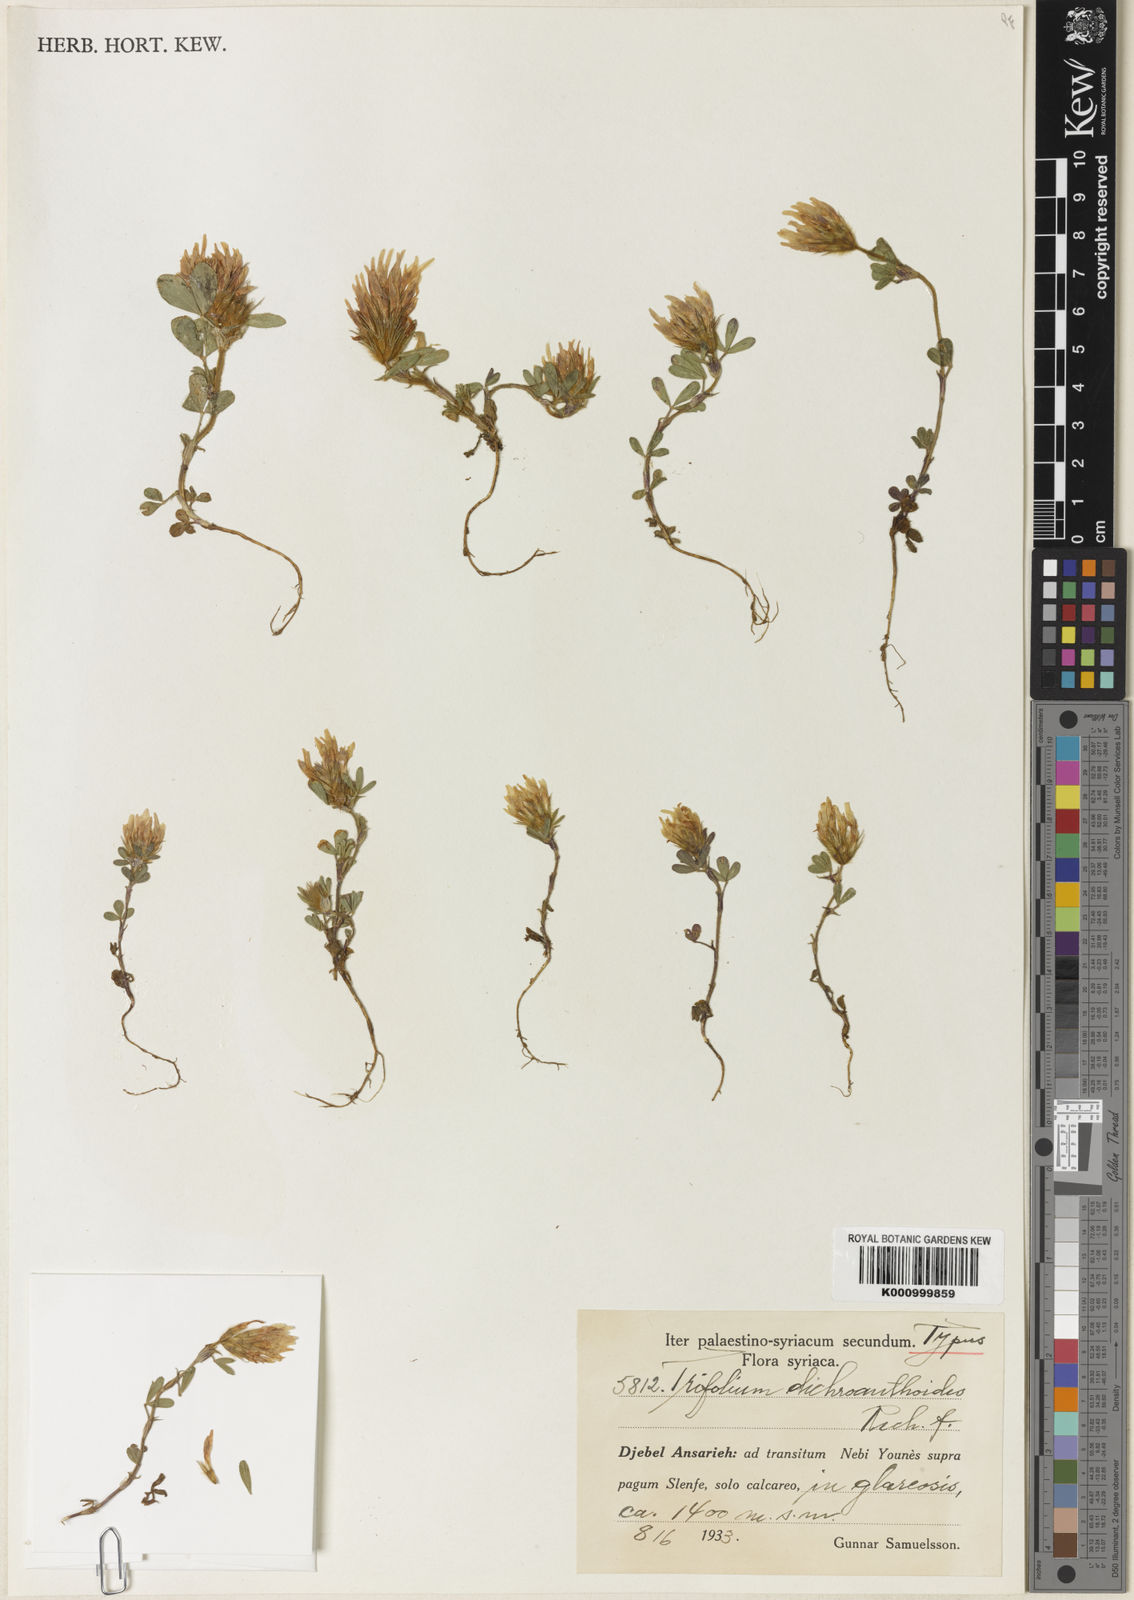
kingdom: Plantae
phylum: Tracheophyta
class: Magnoliopsida
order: Fabales
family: Fabaceae
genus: Trifolium
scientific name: Trifolium dichroanthoides
